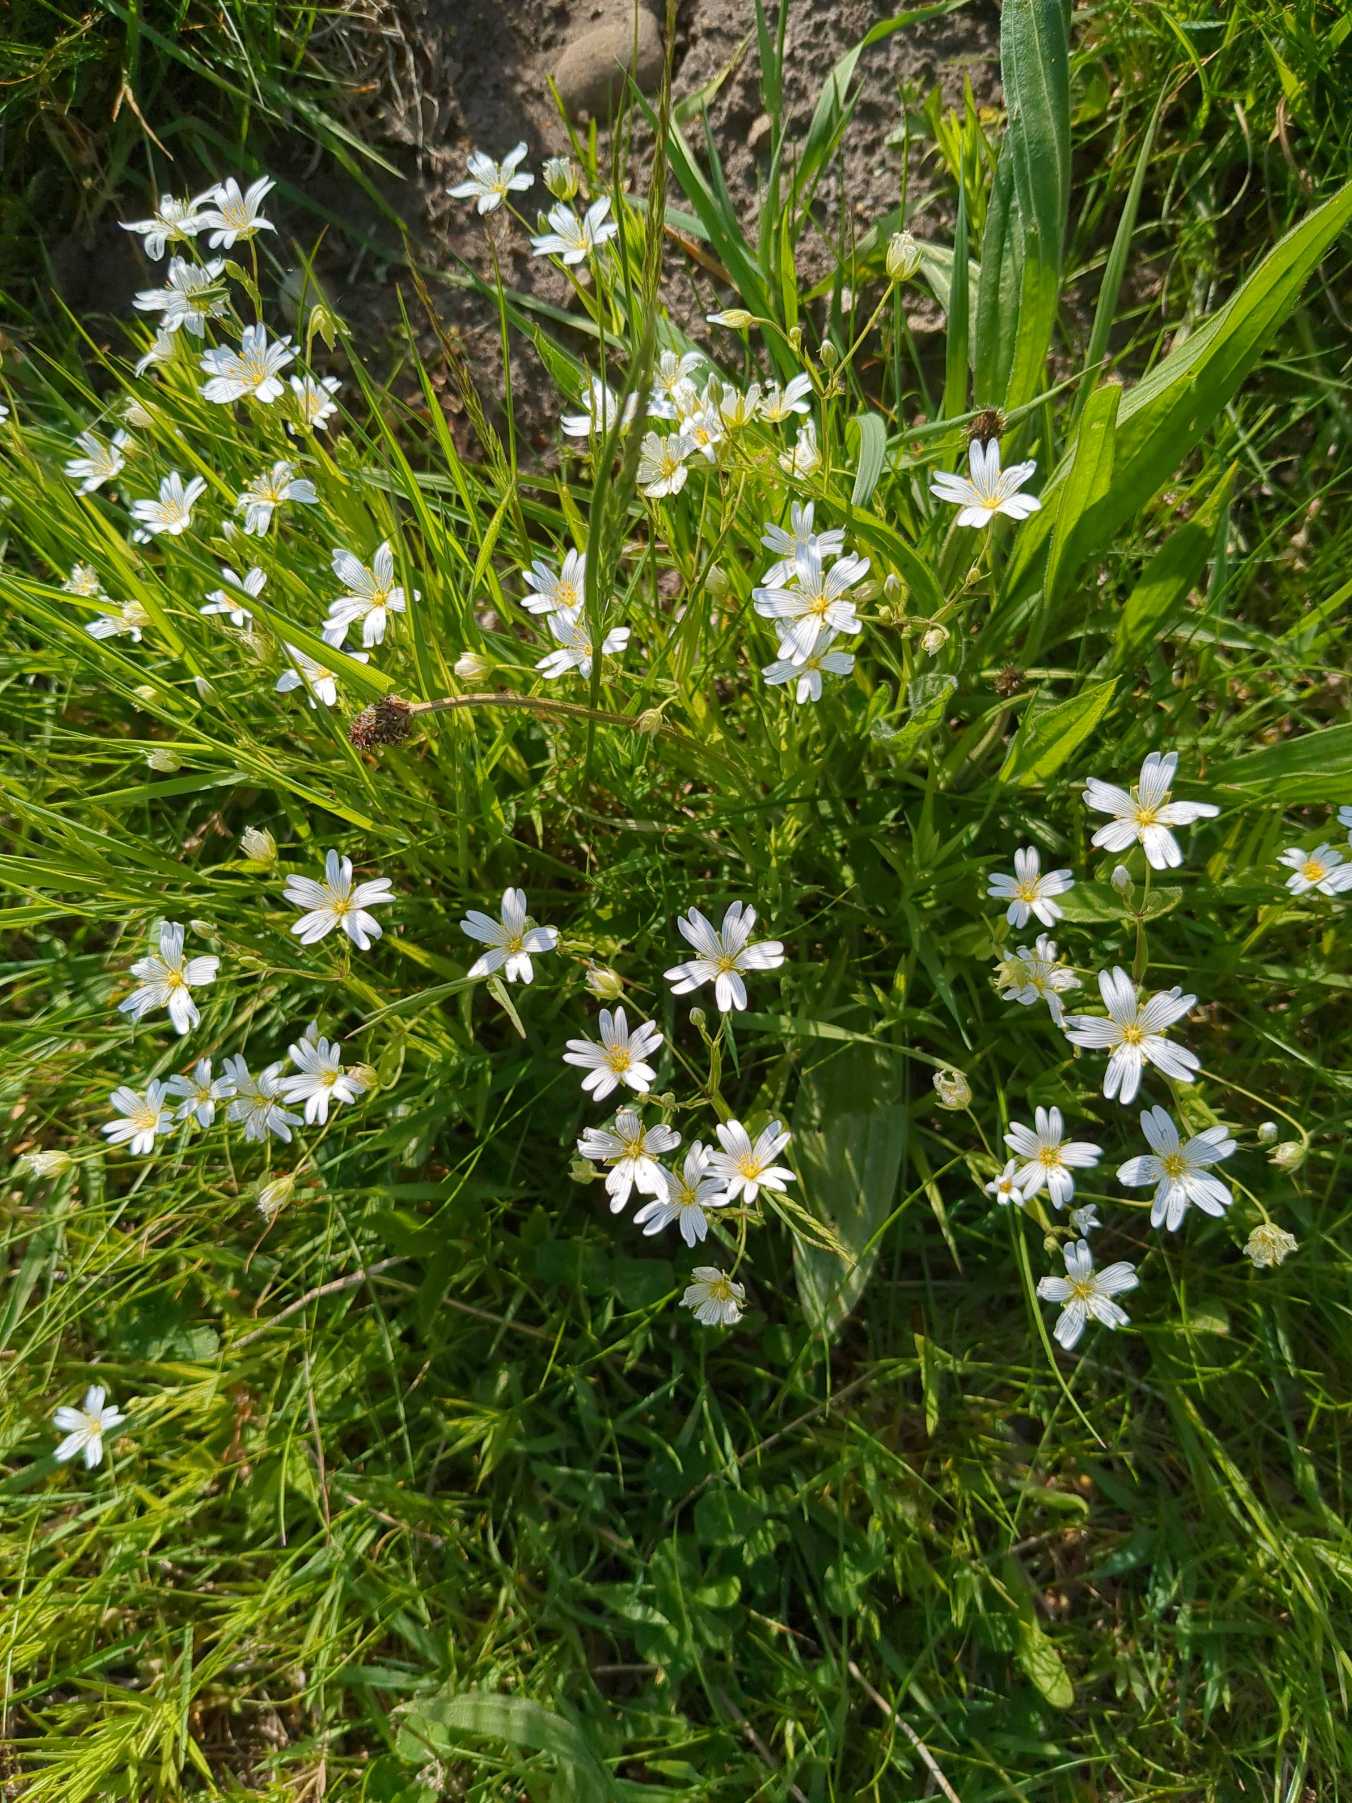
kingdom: Plantae
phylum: Tracheophyta
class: Magnoliopsida
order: Caryophyllales
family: Caryophyllaceae
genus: Rabelera
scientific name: Rabelera holostea
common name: Stor fladstjerne
